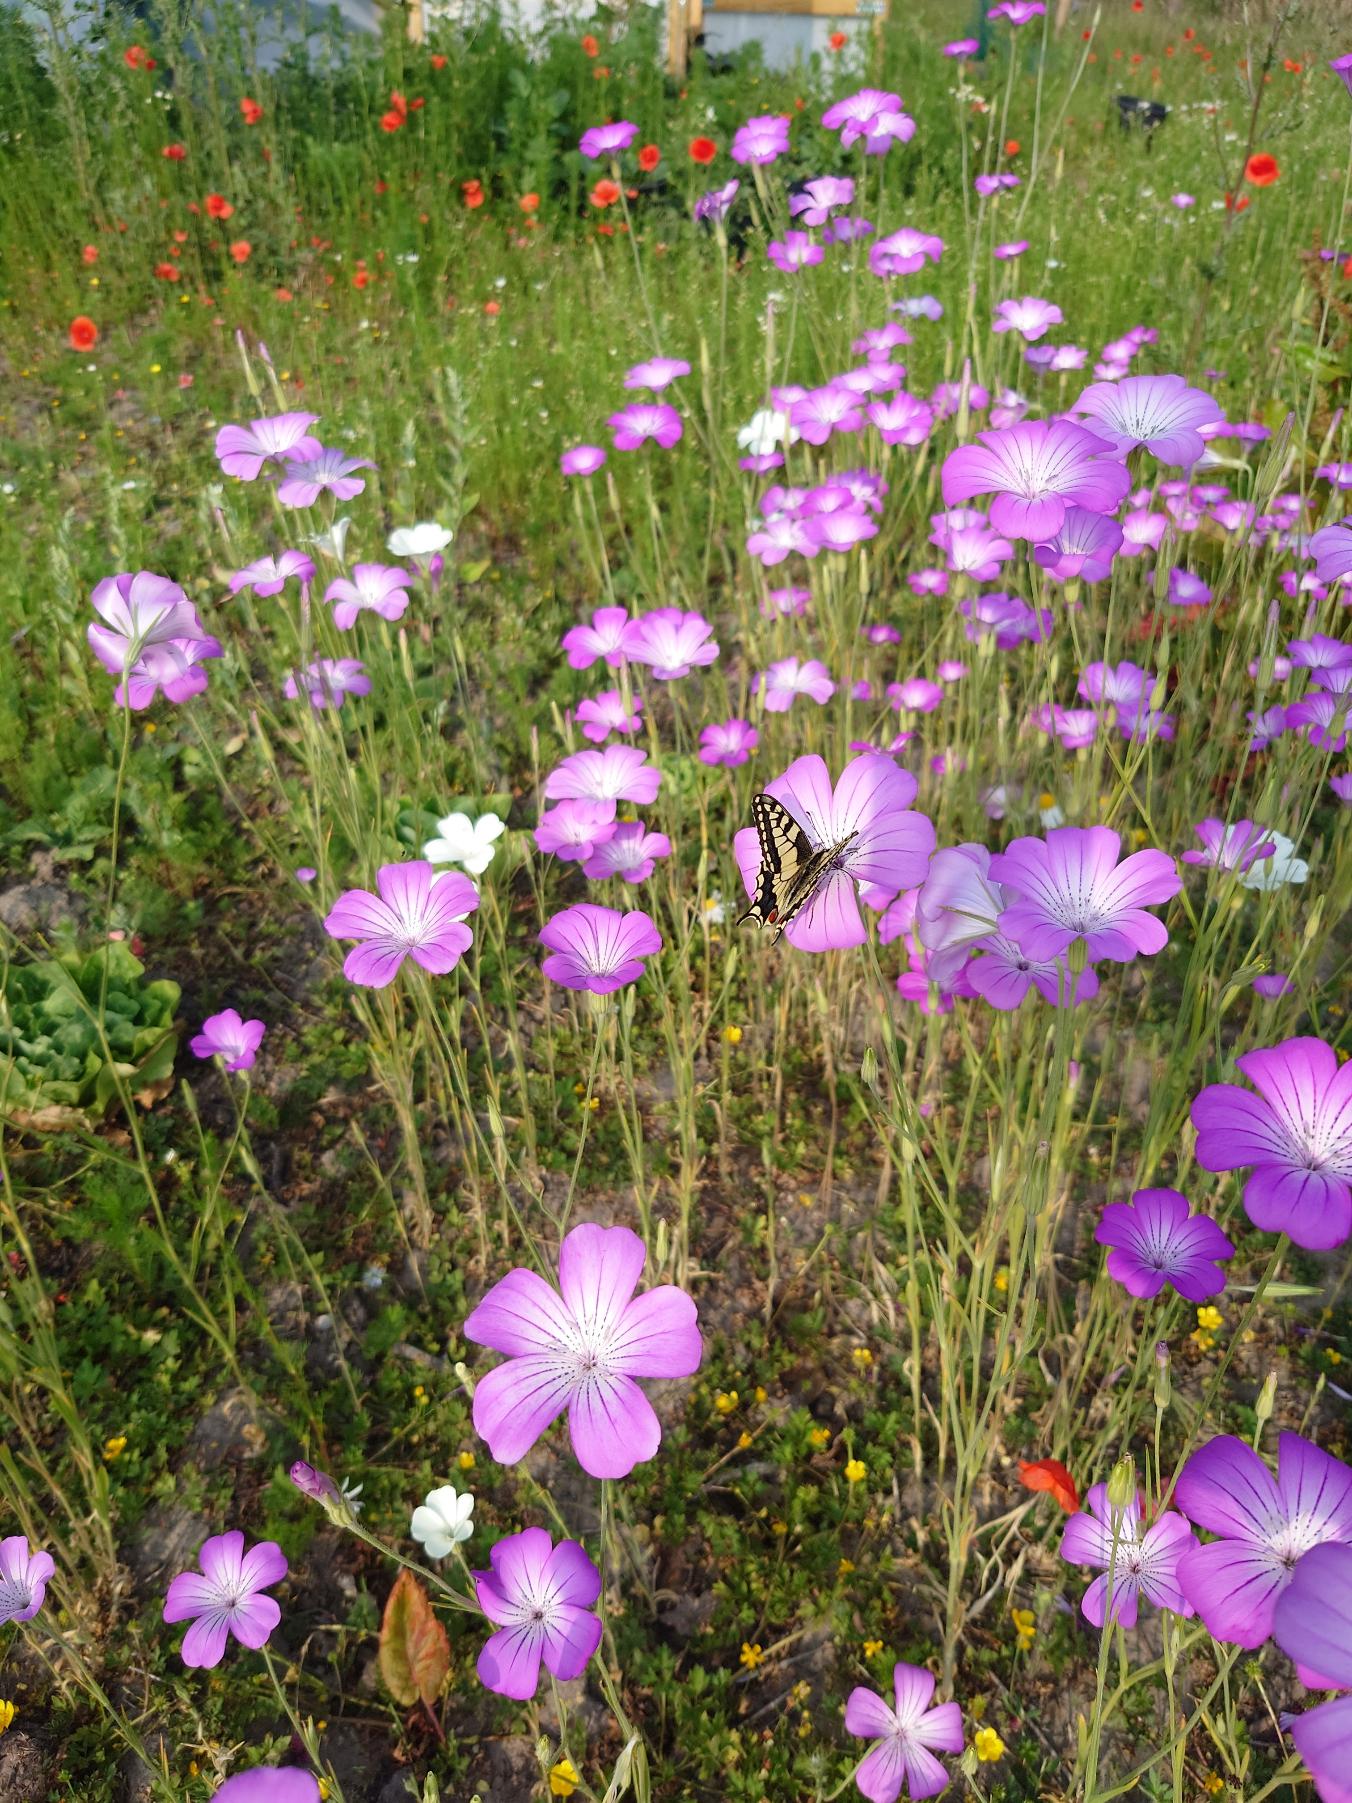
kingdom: Animalia
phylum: Arthropoda
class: Insecta
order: Lepidoptera
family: Papilionidae
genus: Papilio
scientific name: Papilio machaon
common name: Svalehale
